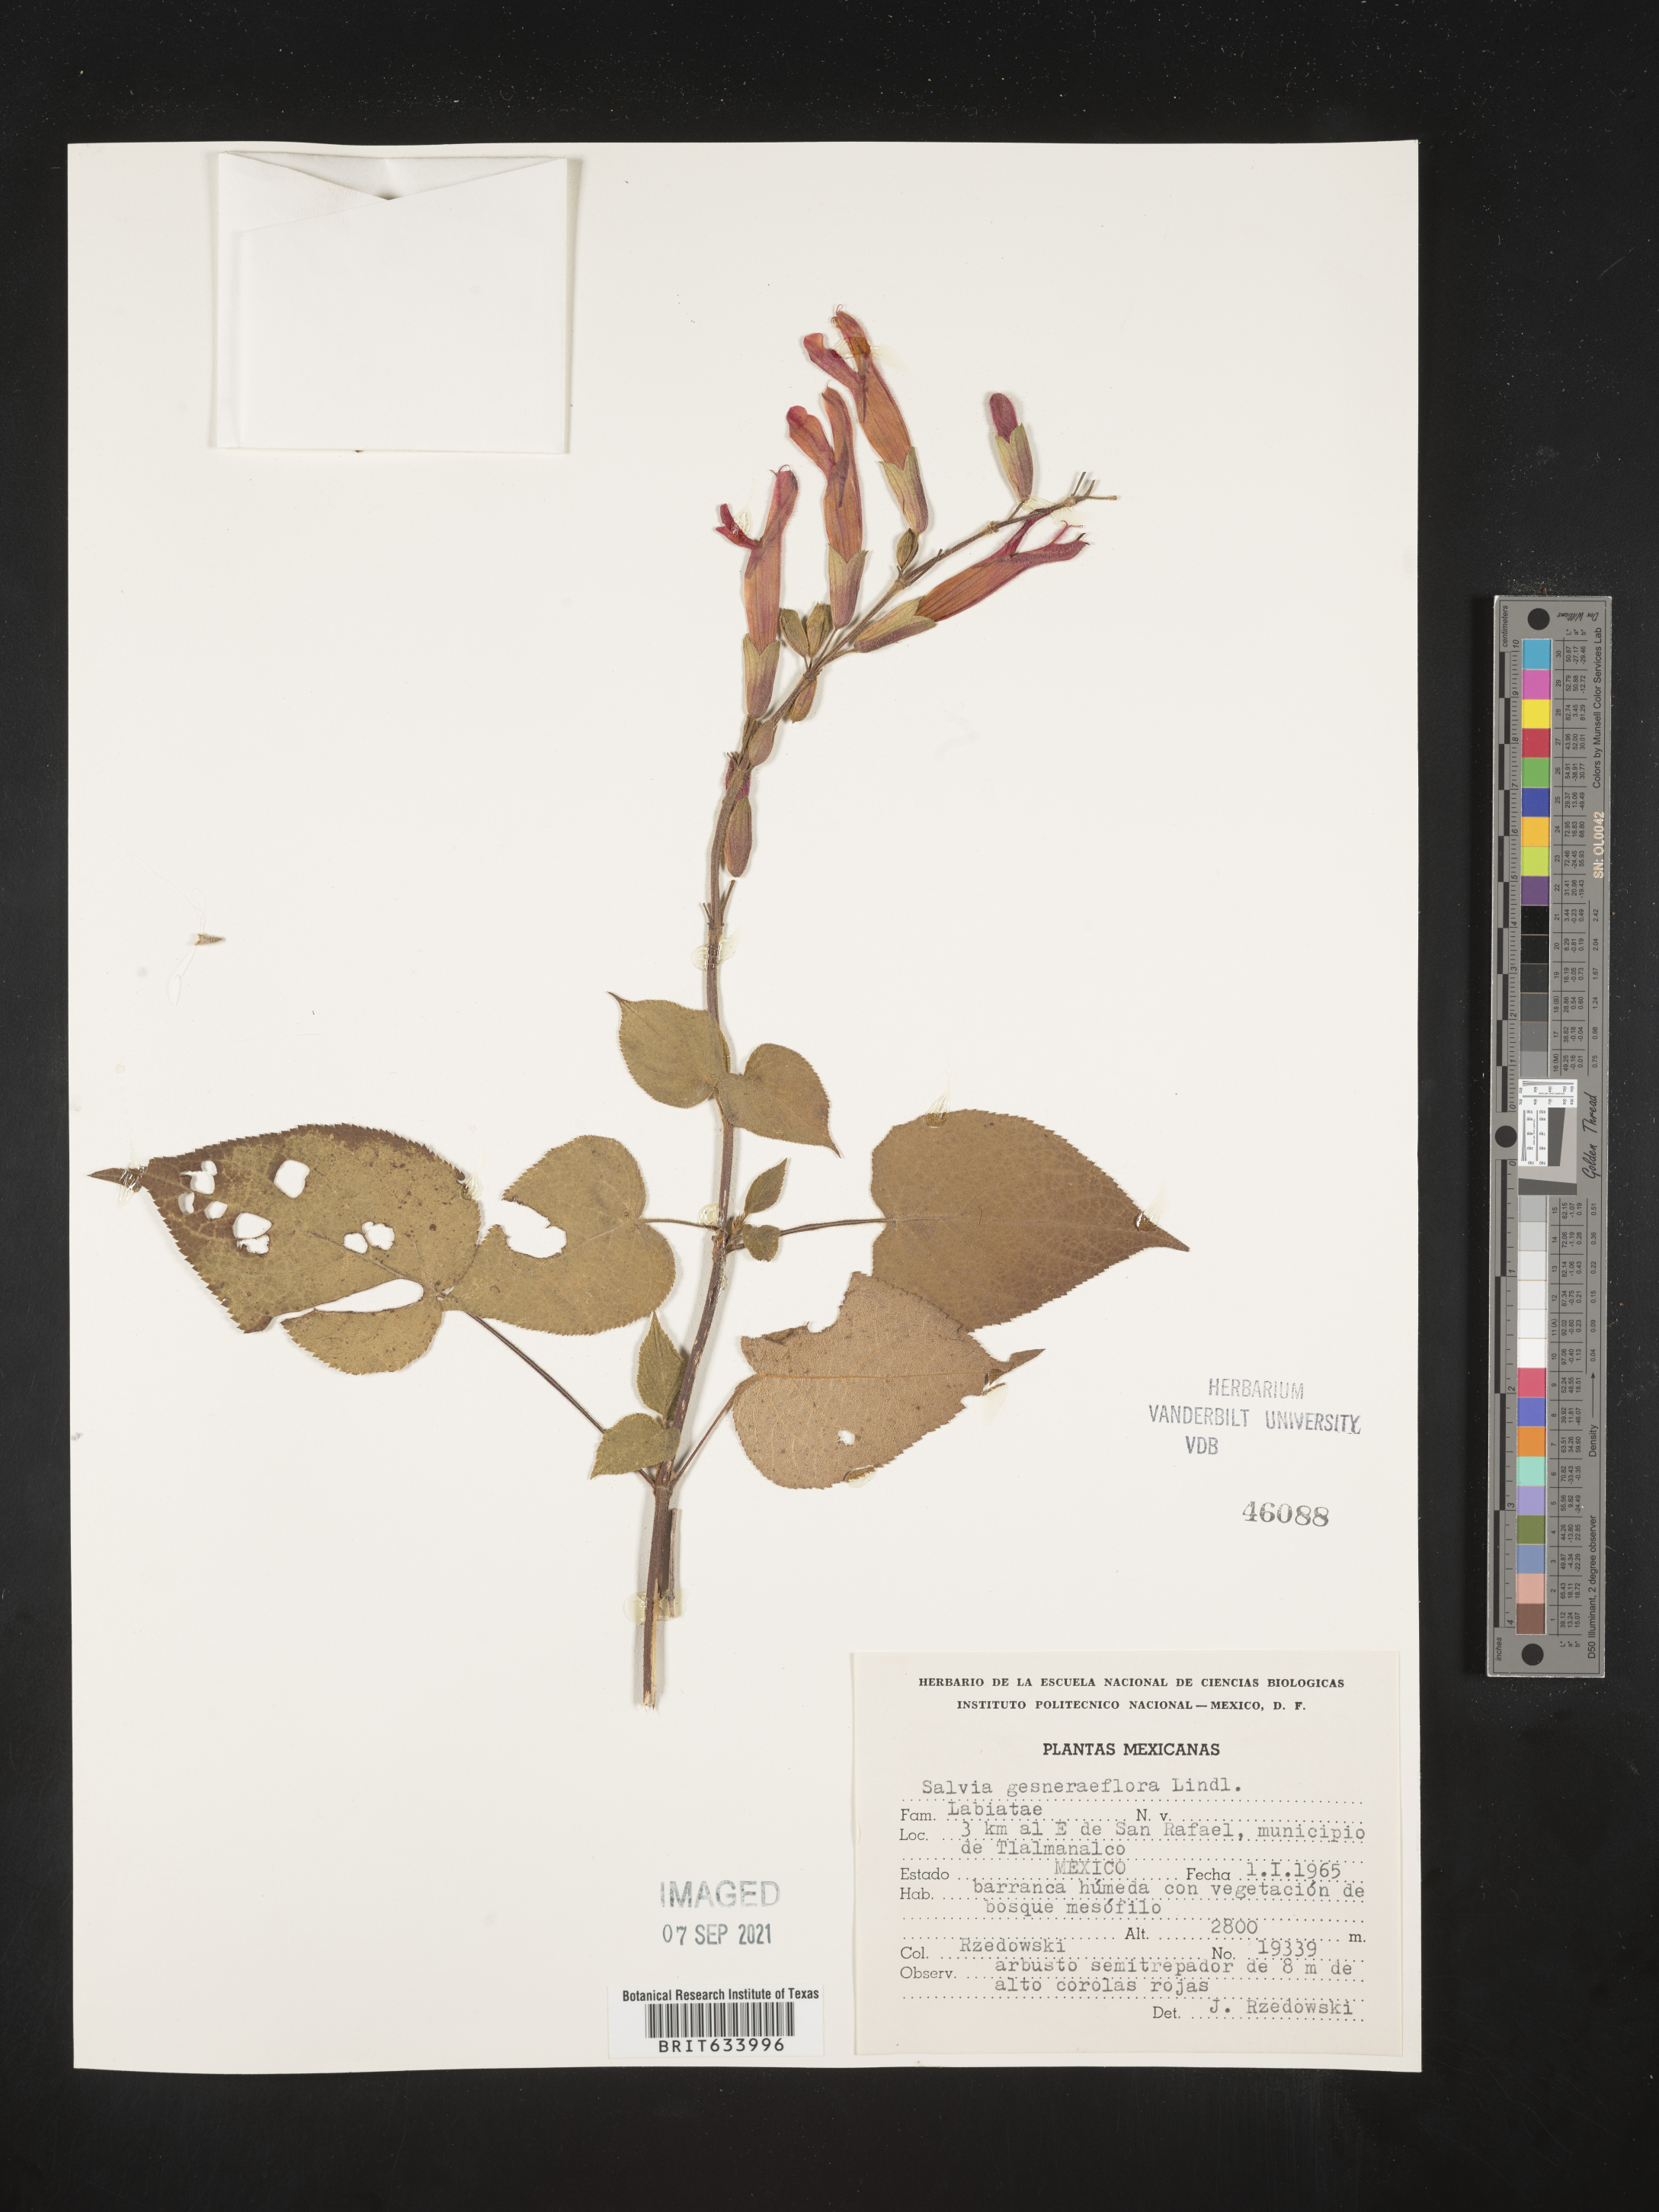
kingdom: Plantae
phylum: Tracheophyta
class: Magnoliopsida
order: Lamiales
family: Lamiaceae
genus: Salvia
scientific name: Salvia
